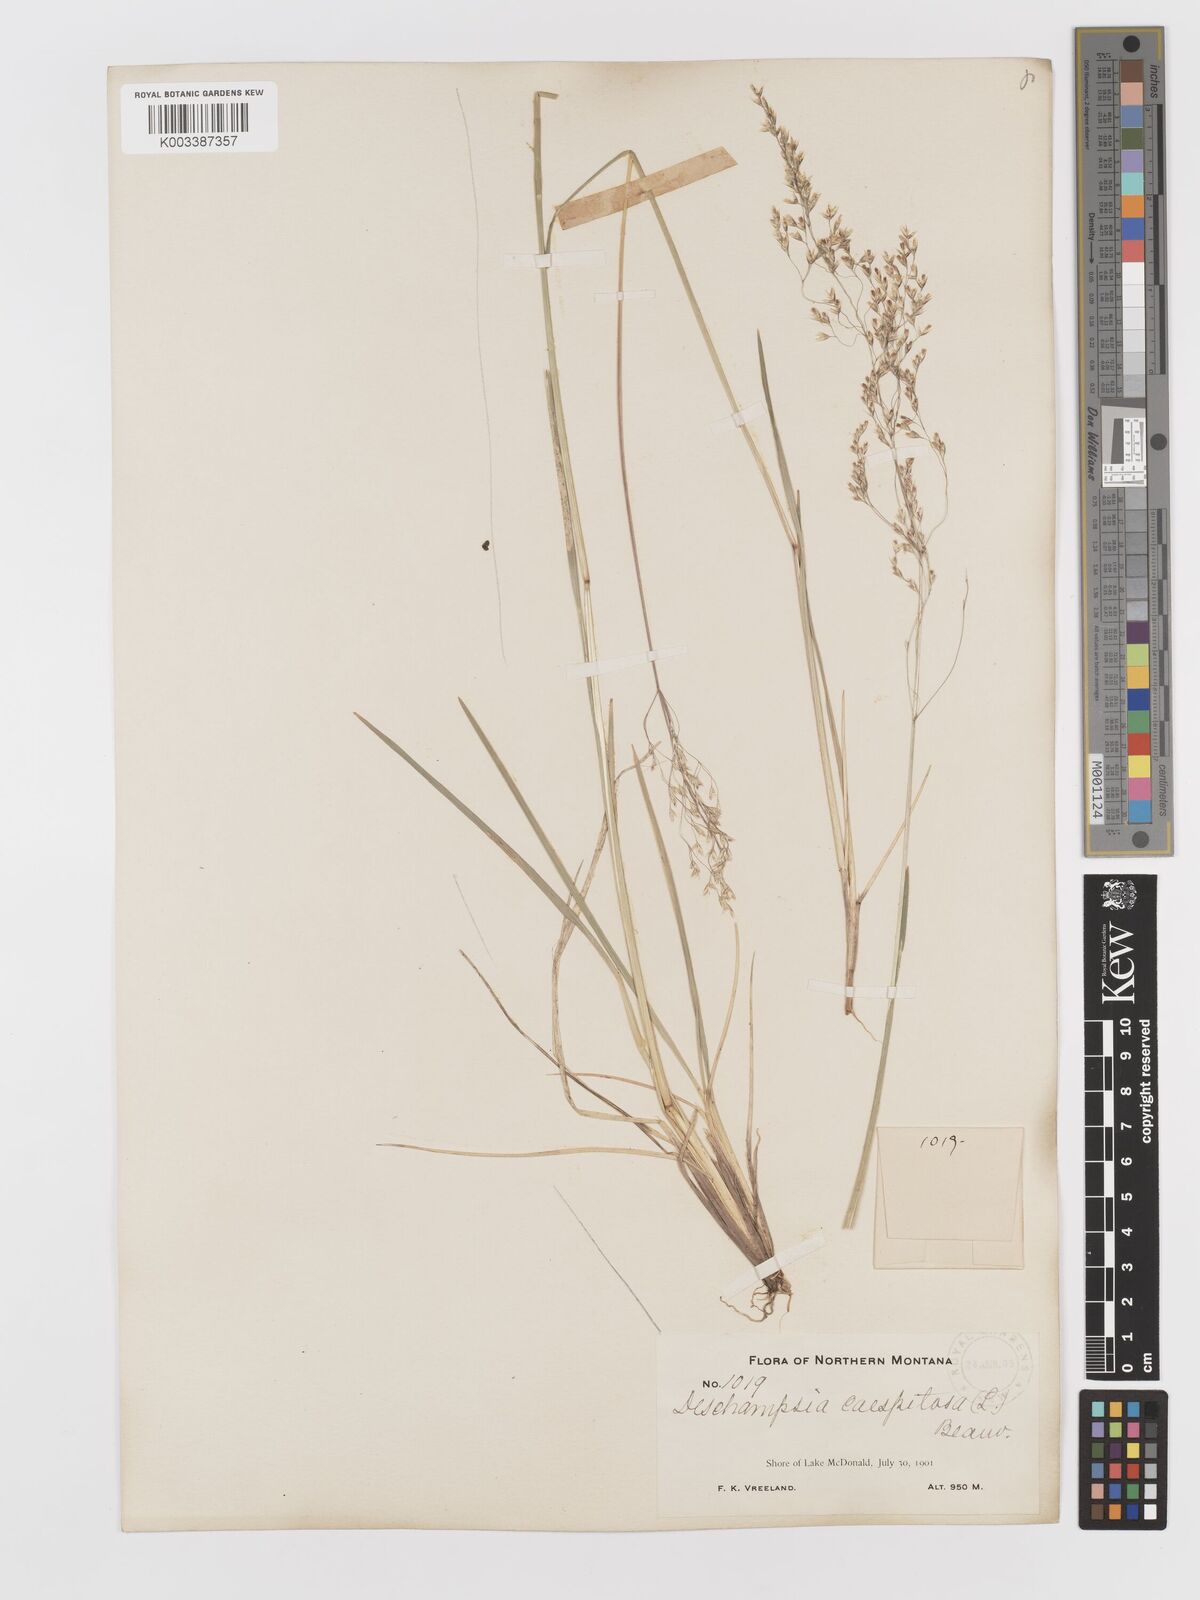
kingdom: Plantae
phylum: Tracheophyta
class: Liliopsida
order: Poales
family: Poaceae
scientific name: Poaceae
